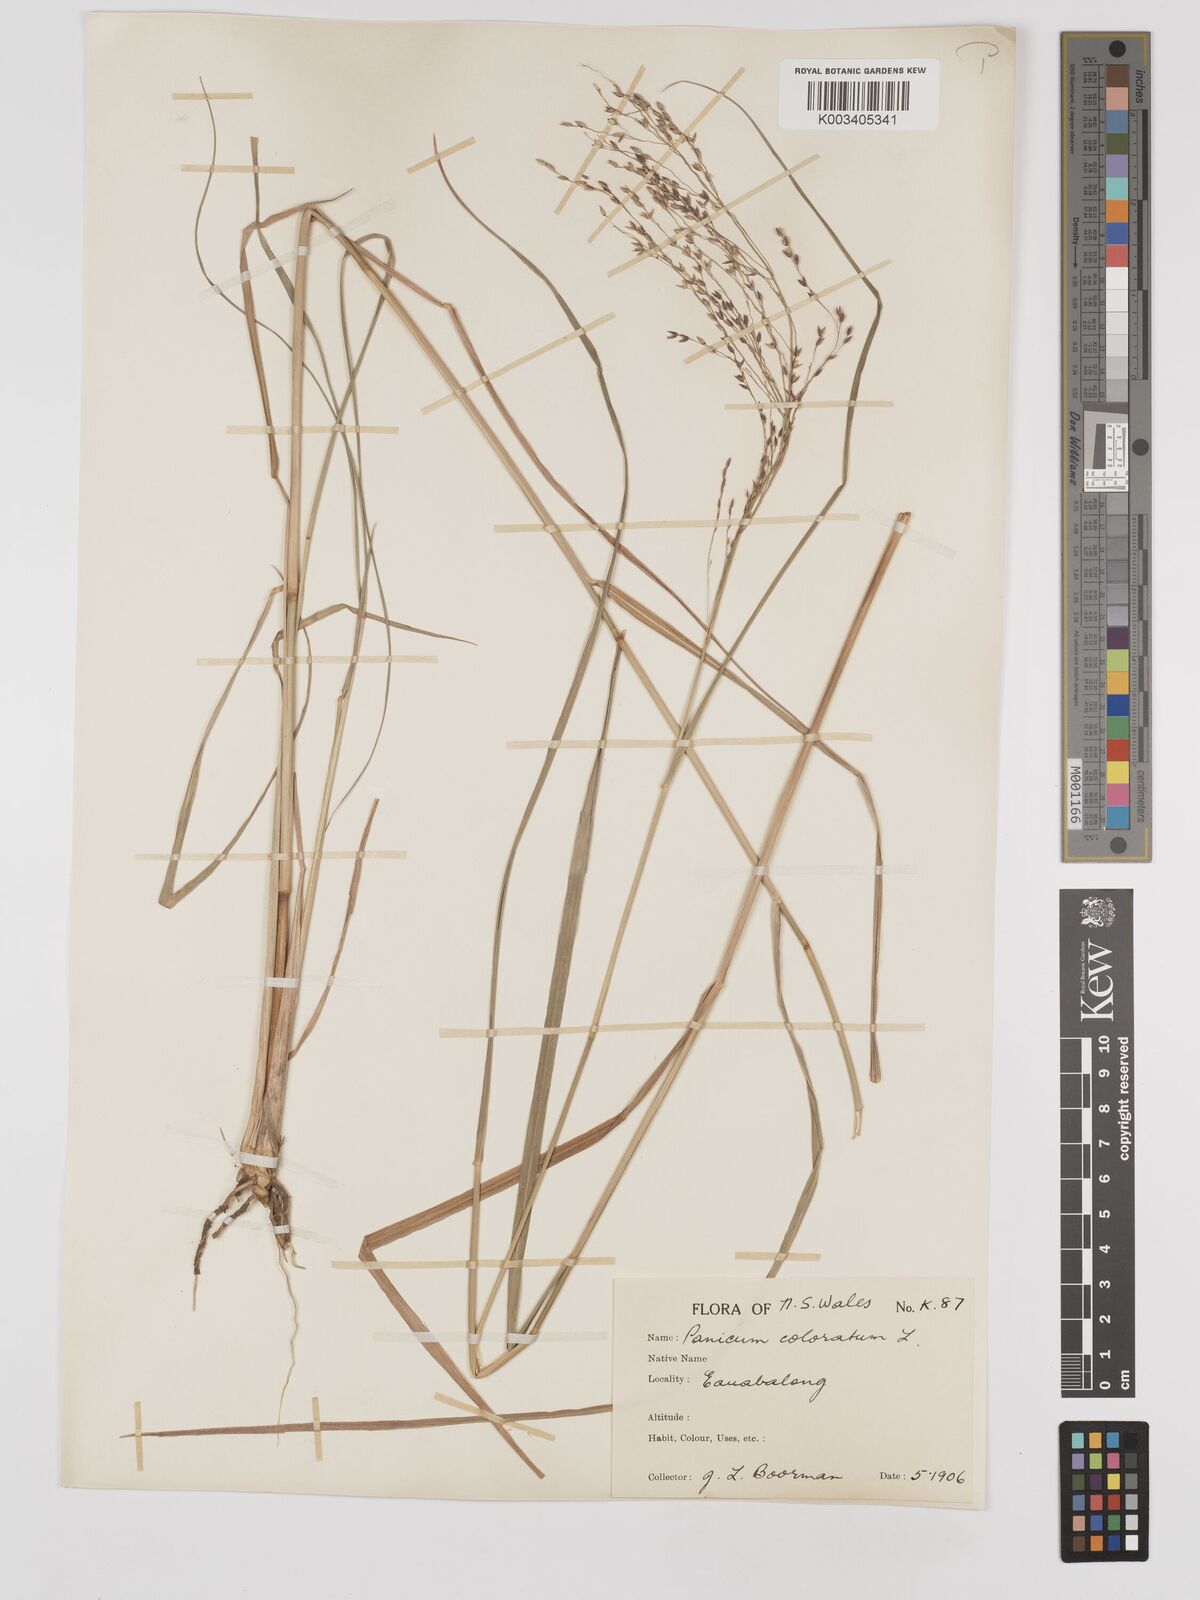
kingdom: Plantae
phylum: Tracheophyta
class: Liliopsida
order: Poales
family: Poaceae
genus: Panicum
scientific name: Panicum coloratum
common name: Kleingrass
